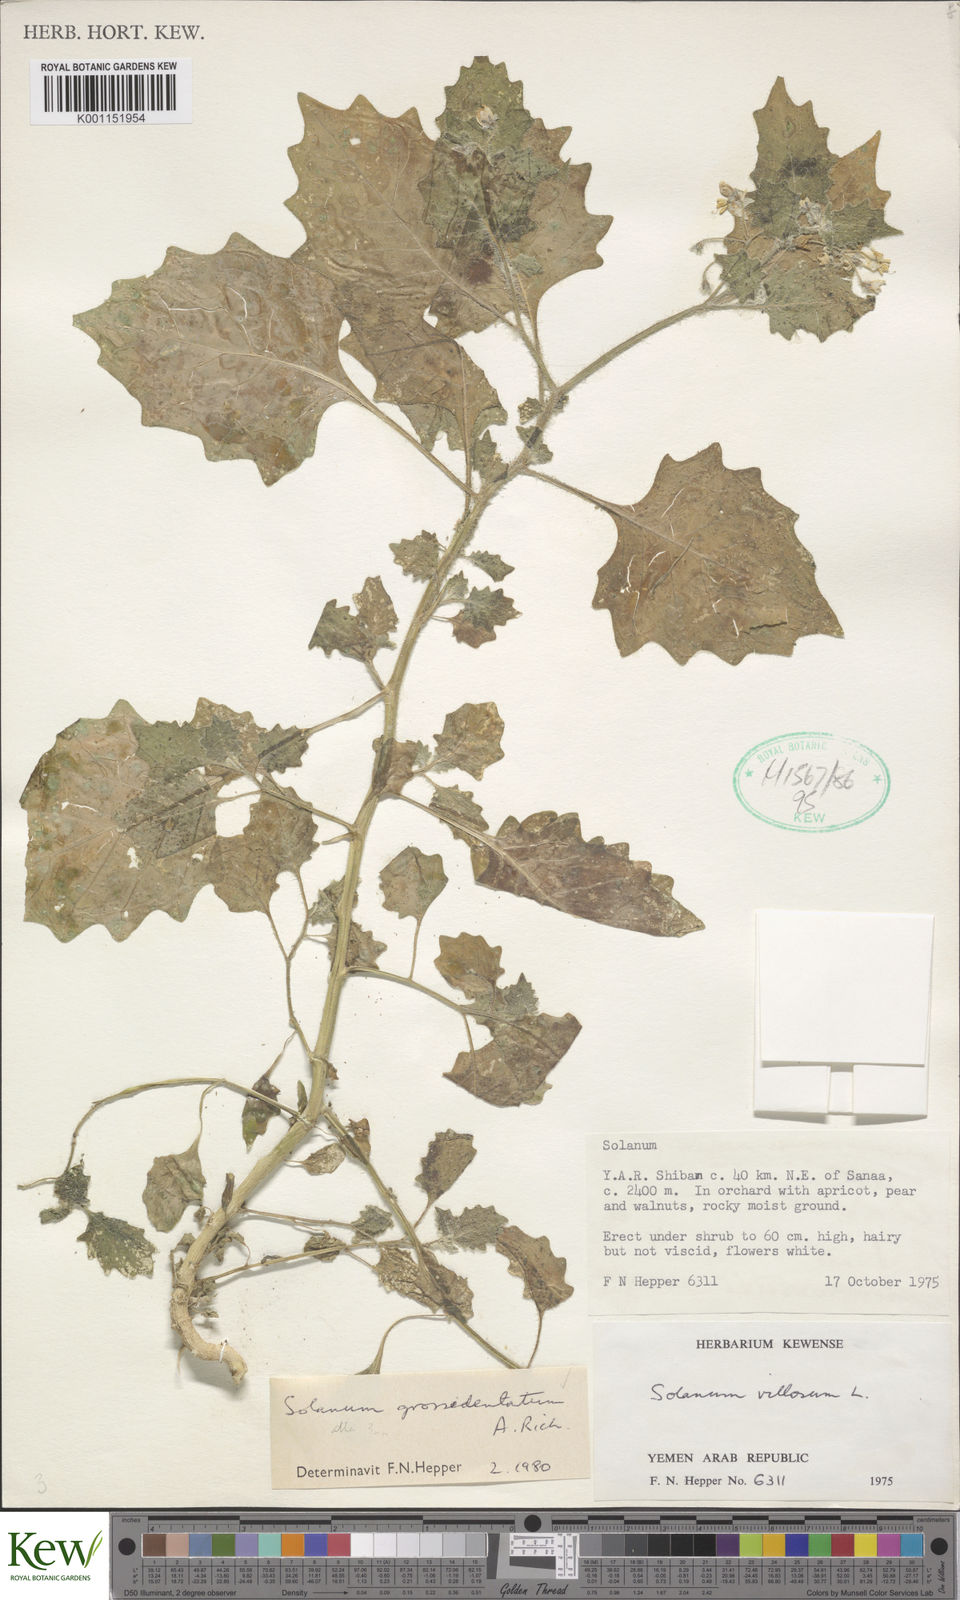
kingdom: Plantae
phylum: Tracheophyta
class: Magnoliopsida
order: Solanales
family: Solanaceae
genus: Solanum
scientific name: Solanum villosum
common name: Red nightshade
